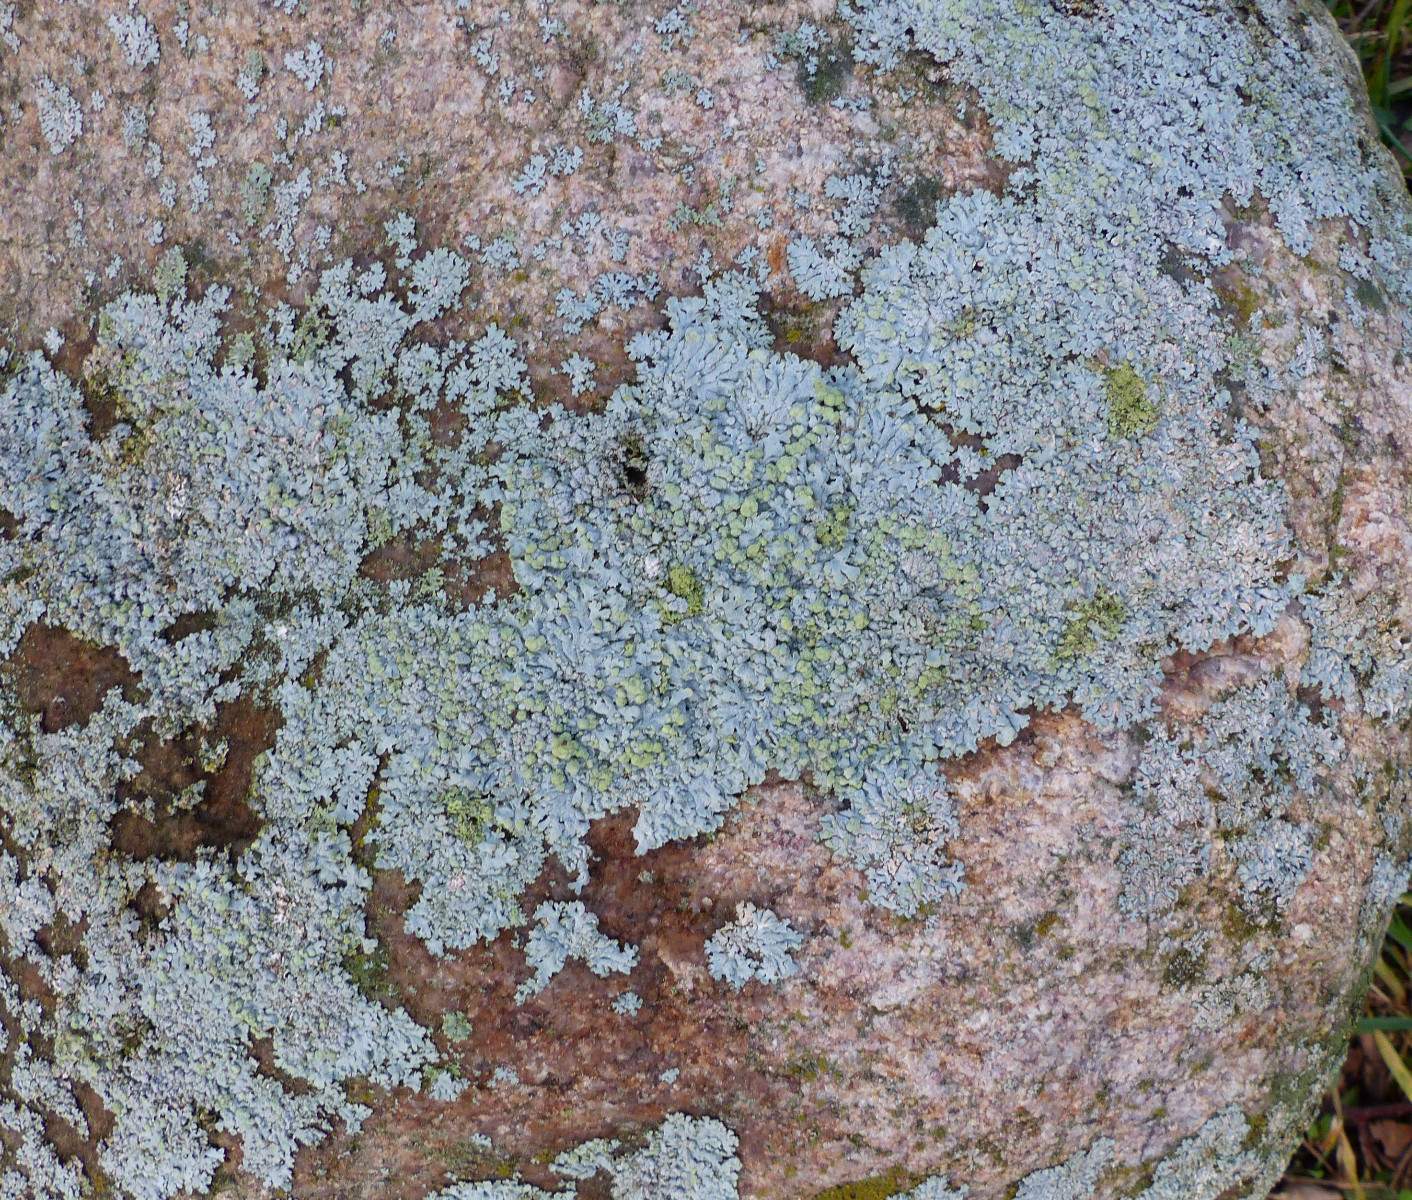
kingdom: Fungi
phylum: Ascomycota
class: Lecanoromycetes
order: Caliciales
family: Physciaceae
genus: Physcia
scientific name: Physcia caesia
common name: blågrå rosetlav
